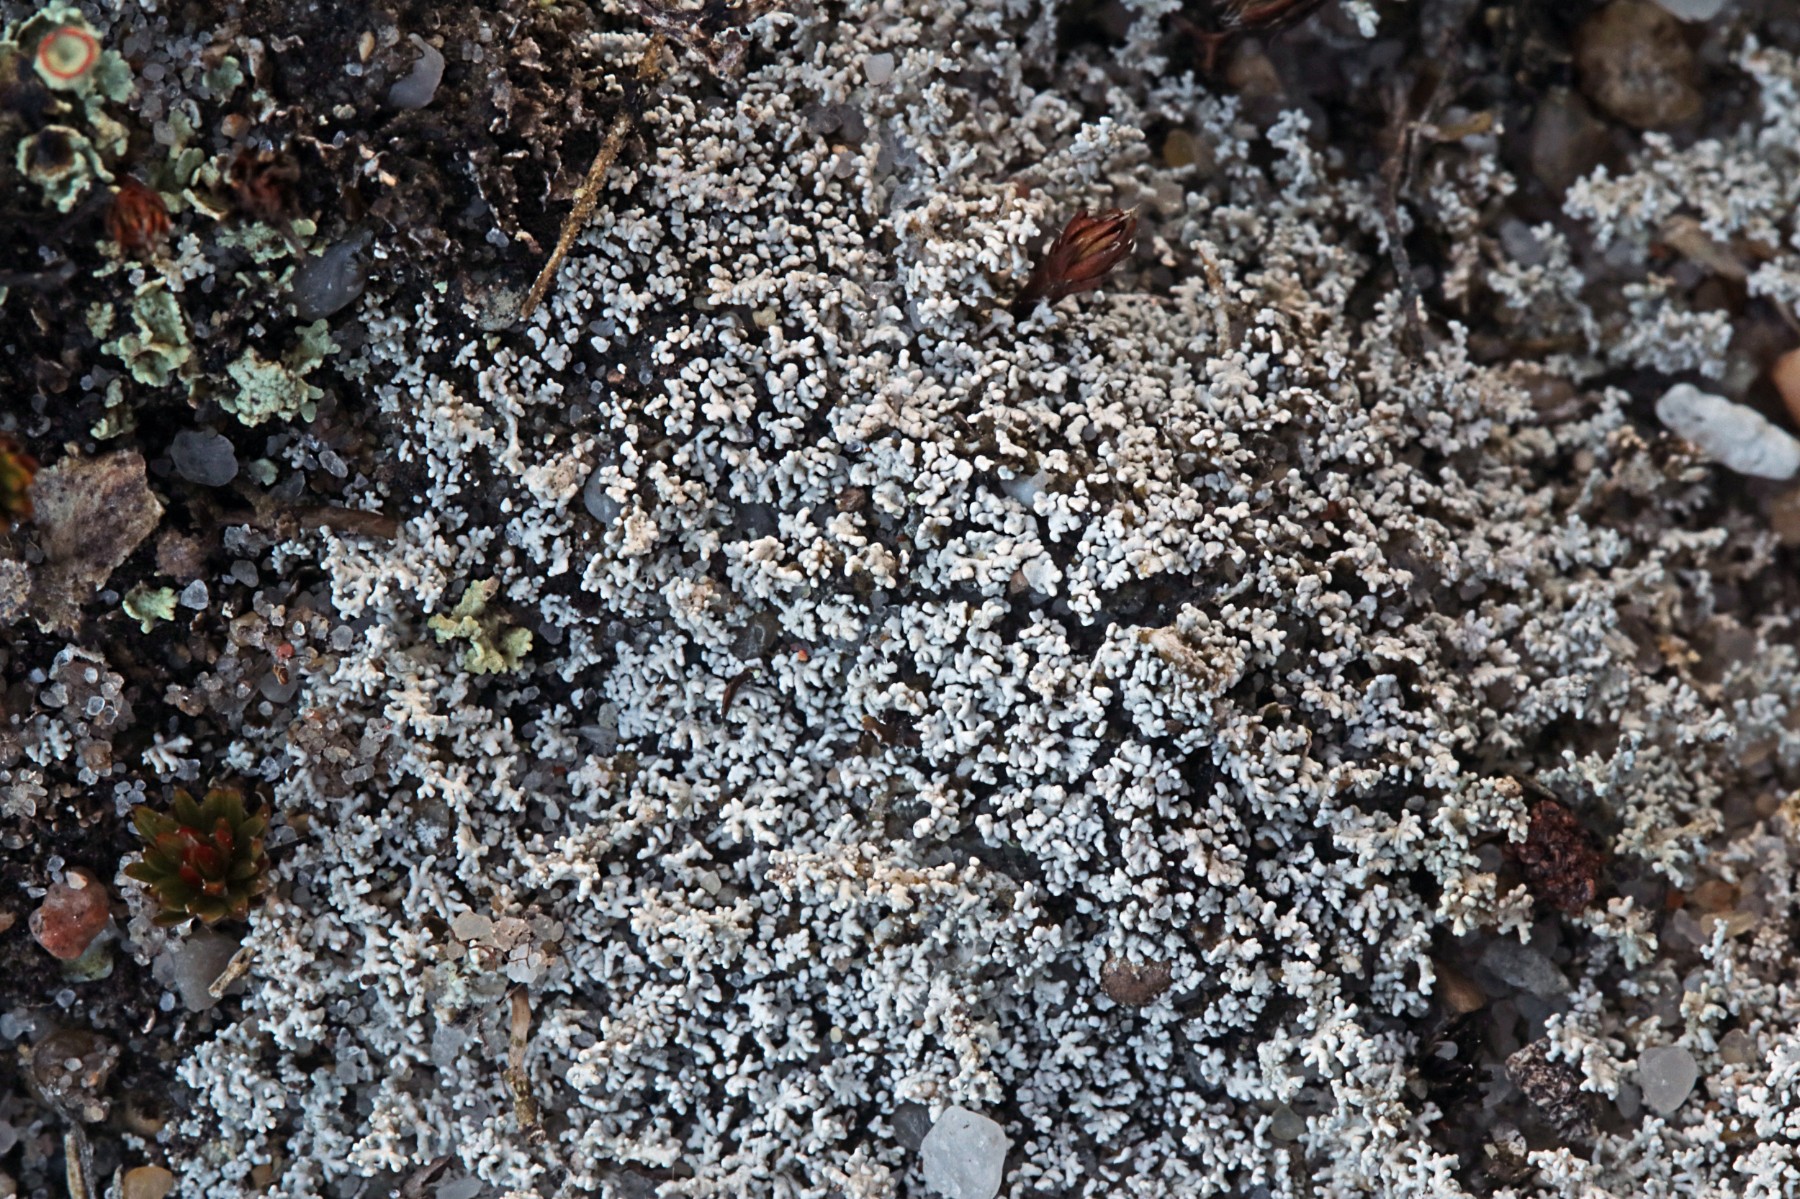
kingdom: Fungi
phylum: Ascomycota
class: Lecanoromycetes
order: Lecanorales
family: Stereocaulaceae
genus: Stereocaulon
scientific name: Stereocaulon condensatum
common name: lav korallav
